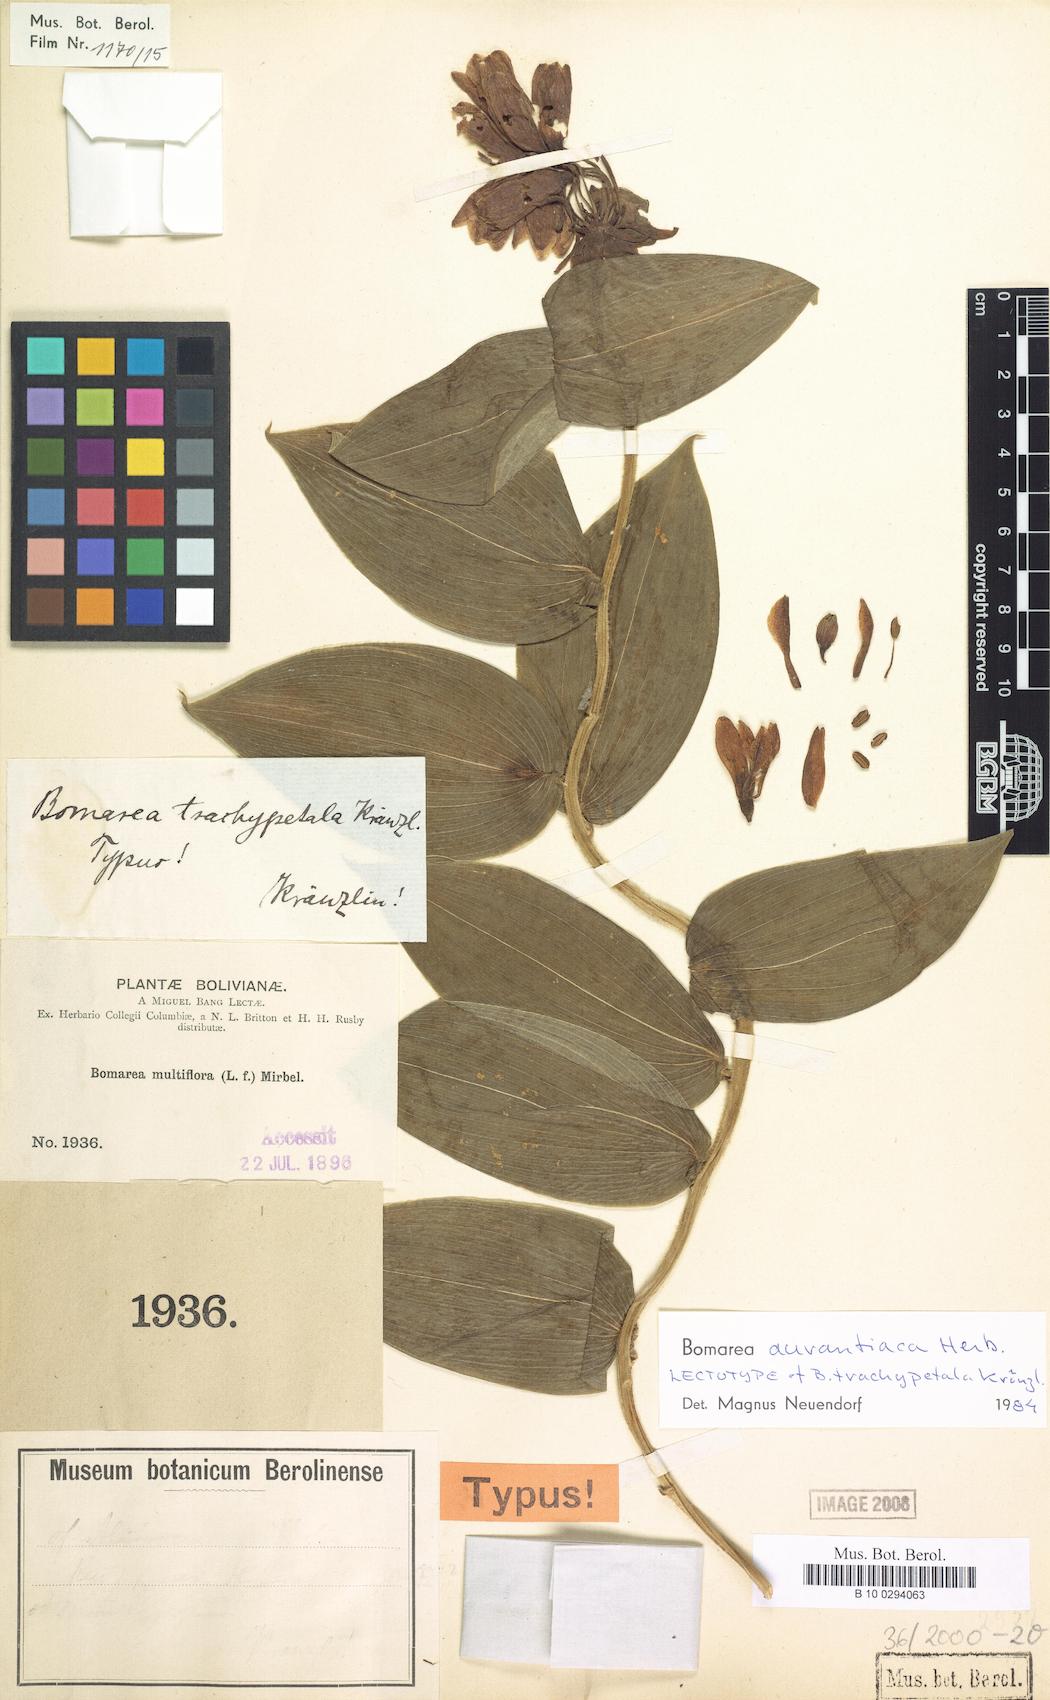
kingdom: Plantae
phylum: Tracheophyta
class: Liliopsida
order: Liliales
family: Alstroemeriaceae
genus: Bomarea
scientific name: Bomarea aurantiaca
